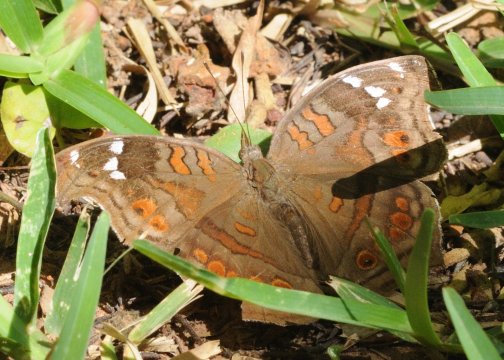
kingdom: Animalia
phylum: Arthropoda
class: Insecta
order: Lepidoptera
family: Nymphalidae
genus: Junonia
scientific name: Junonia natalica
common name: Natal Pansy
